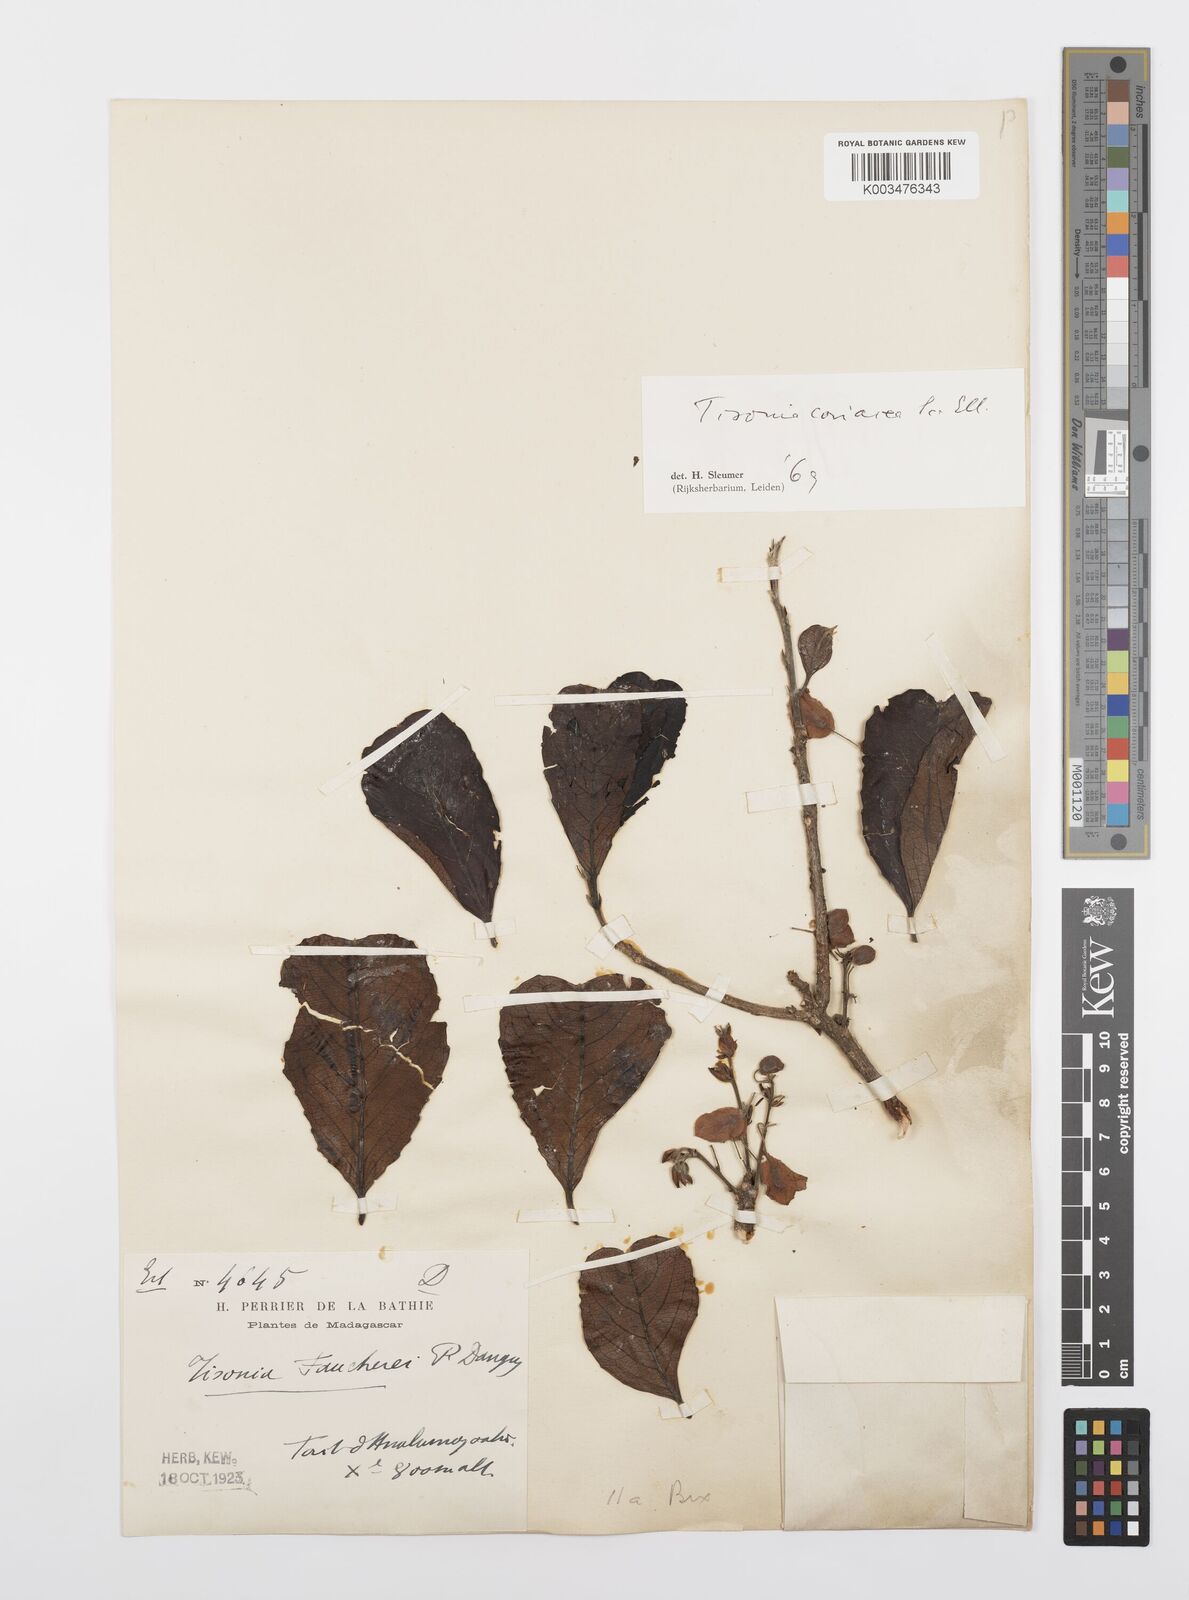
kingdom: Plantae
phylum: Tracheophyta
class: Magnoliopsida
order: Malpighiales
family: Salicaceae
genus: Tisonia
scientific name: Tisonia coriacea
